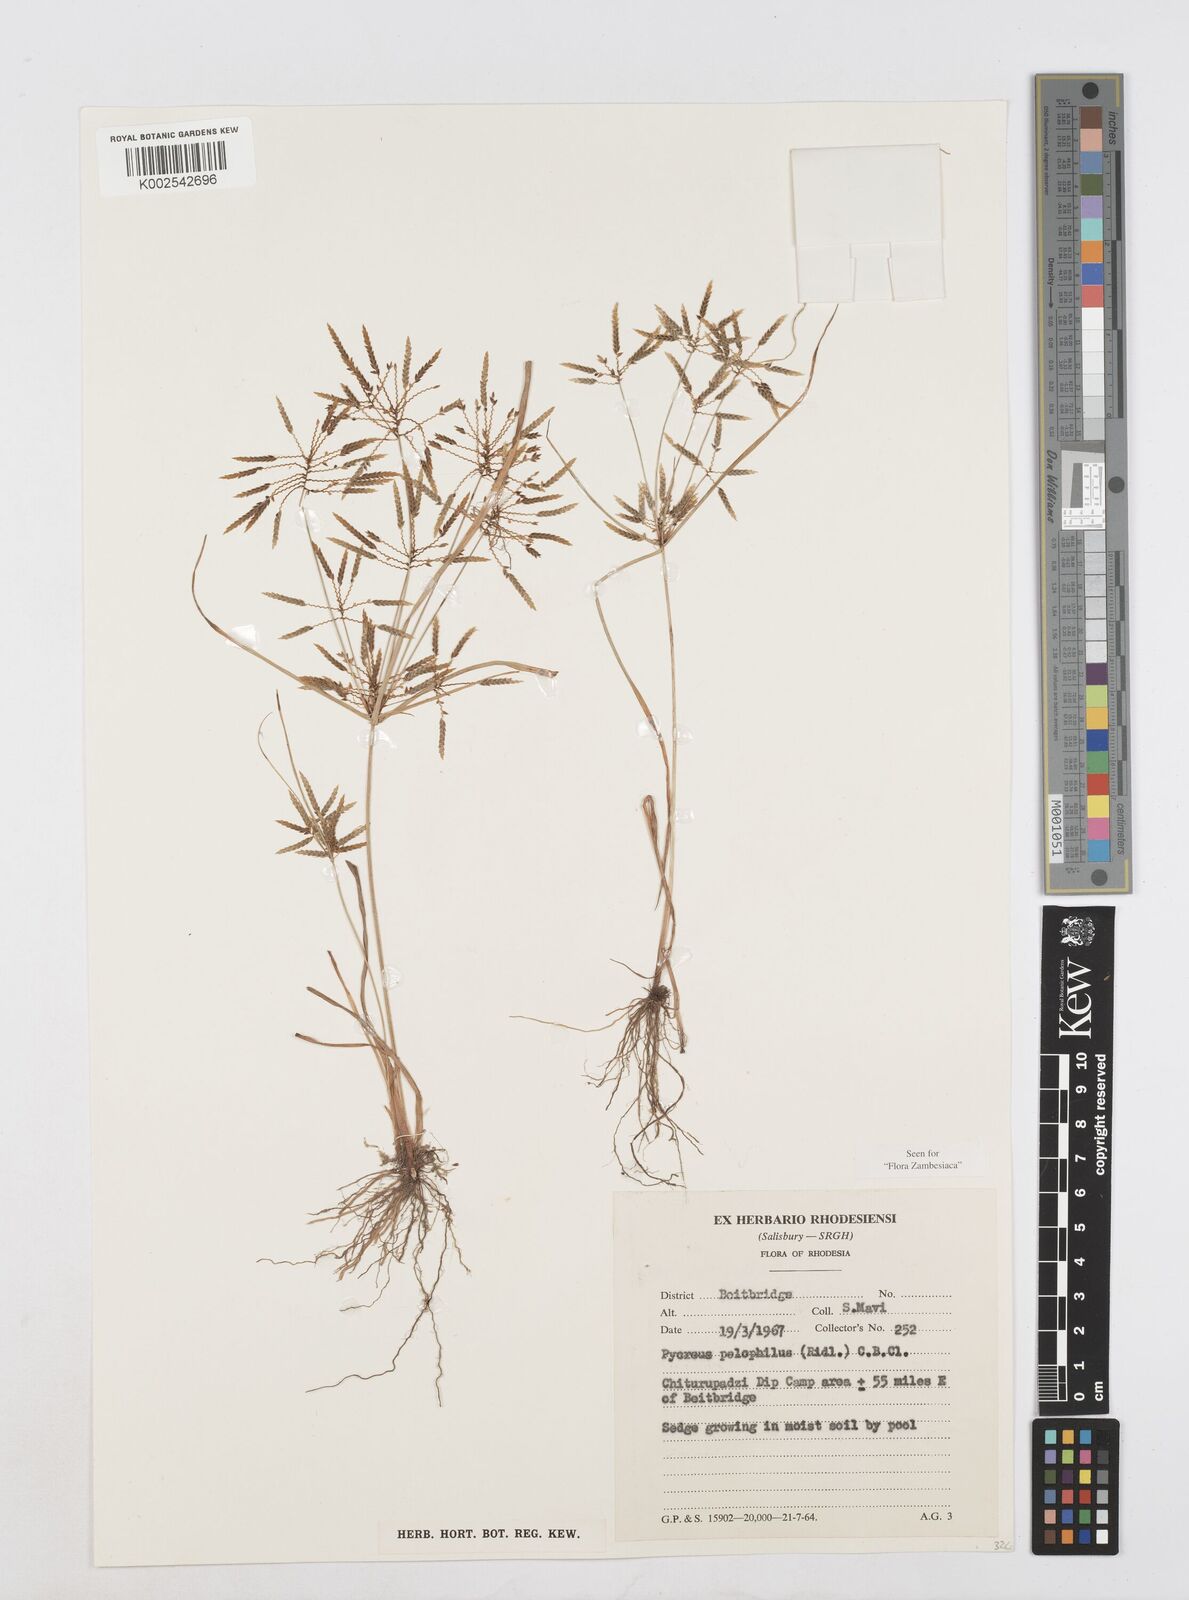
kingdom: Plantae
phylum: Tracheophyta
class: Liliopsida
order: Poales
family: Cyperaceae
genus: Cyperus
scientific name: Cyperus pelophilus
